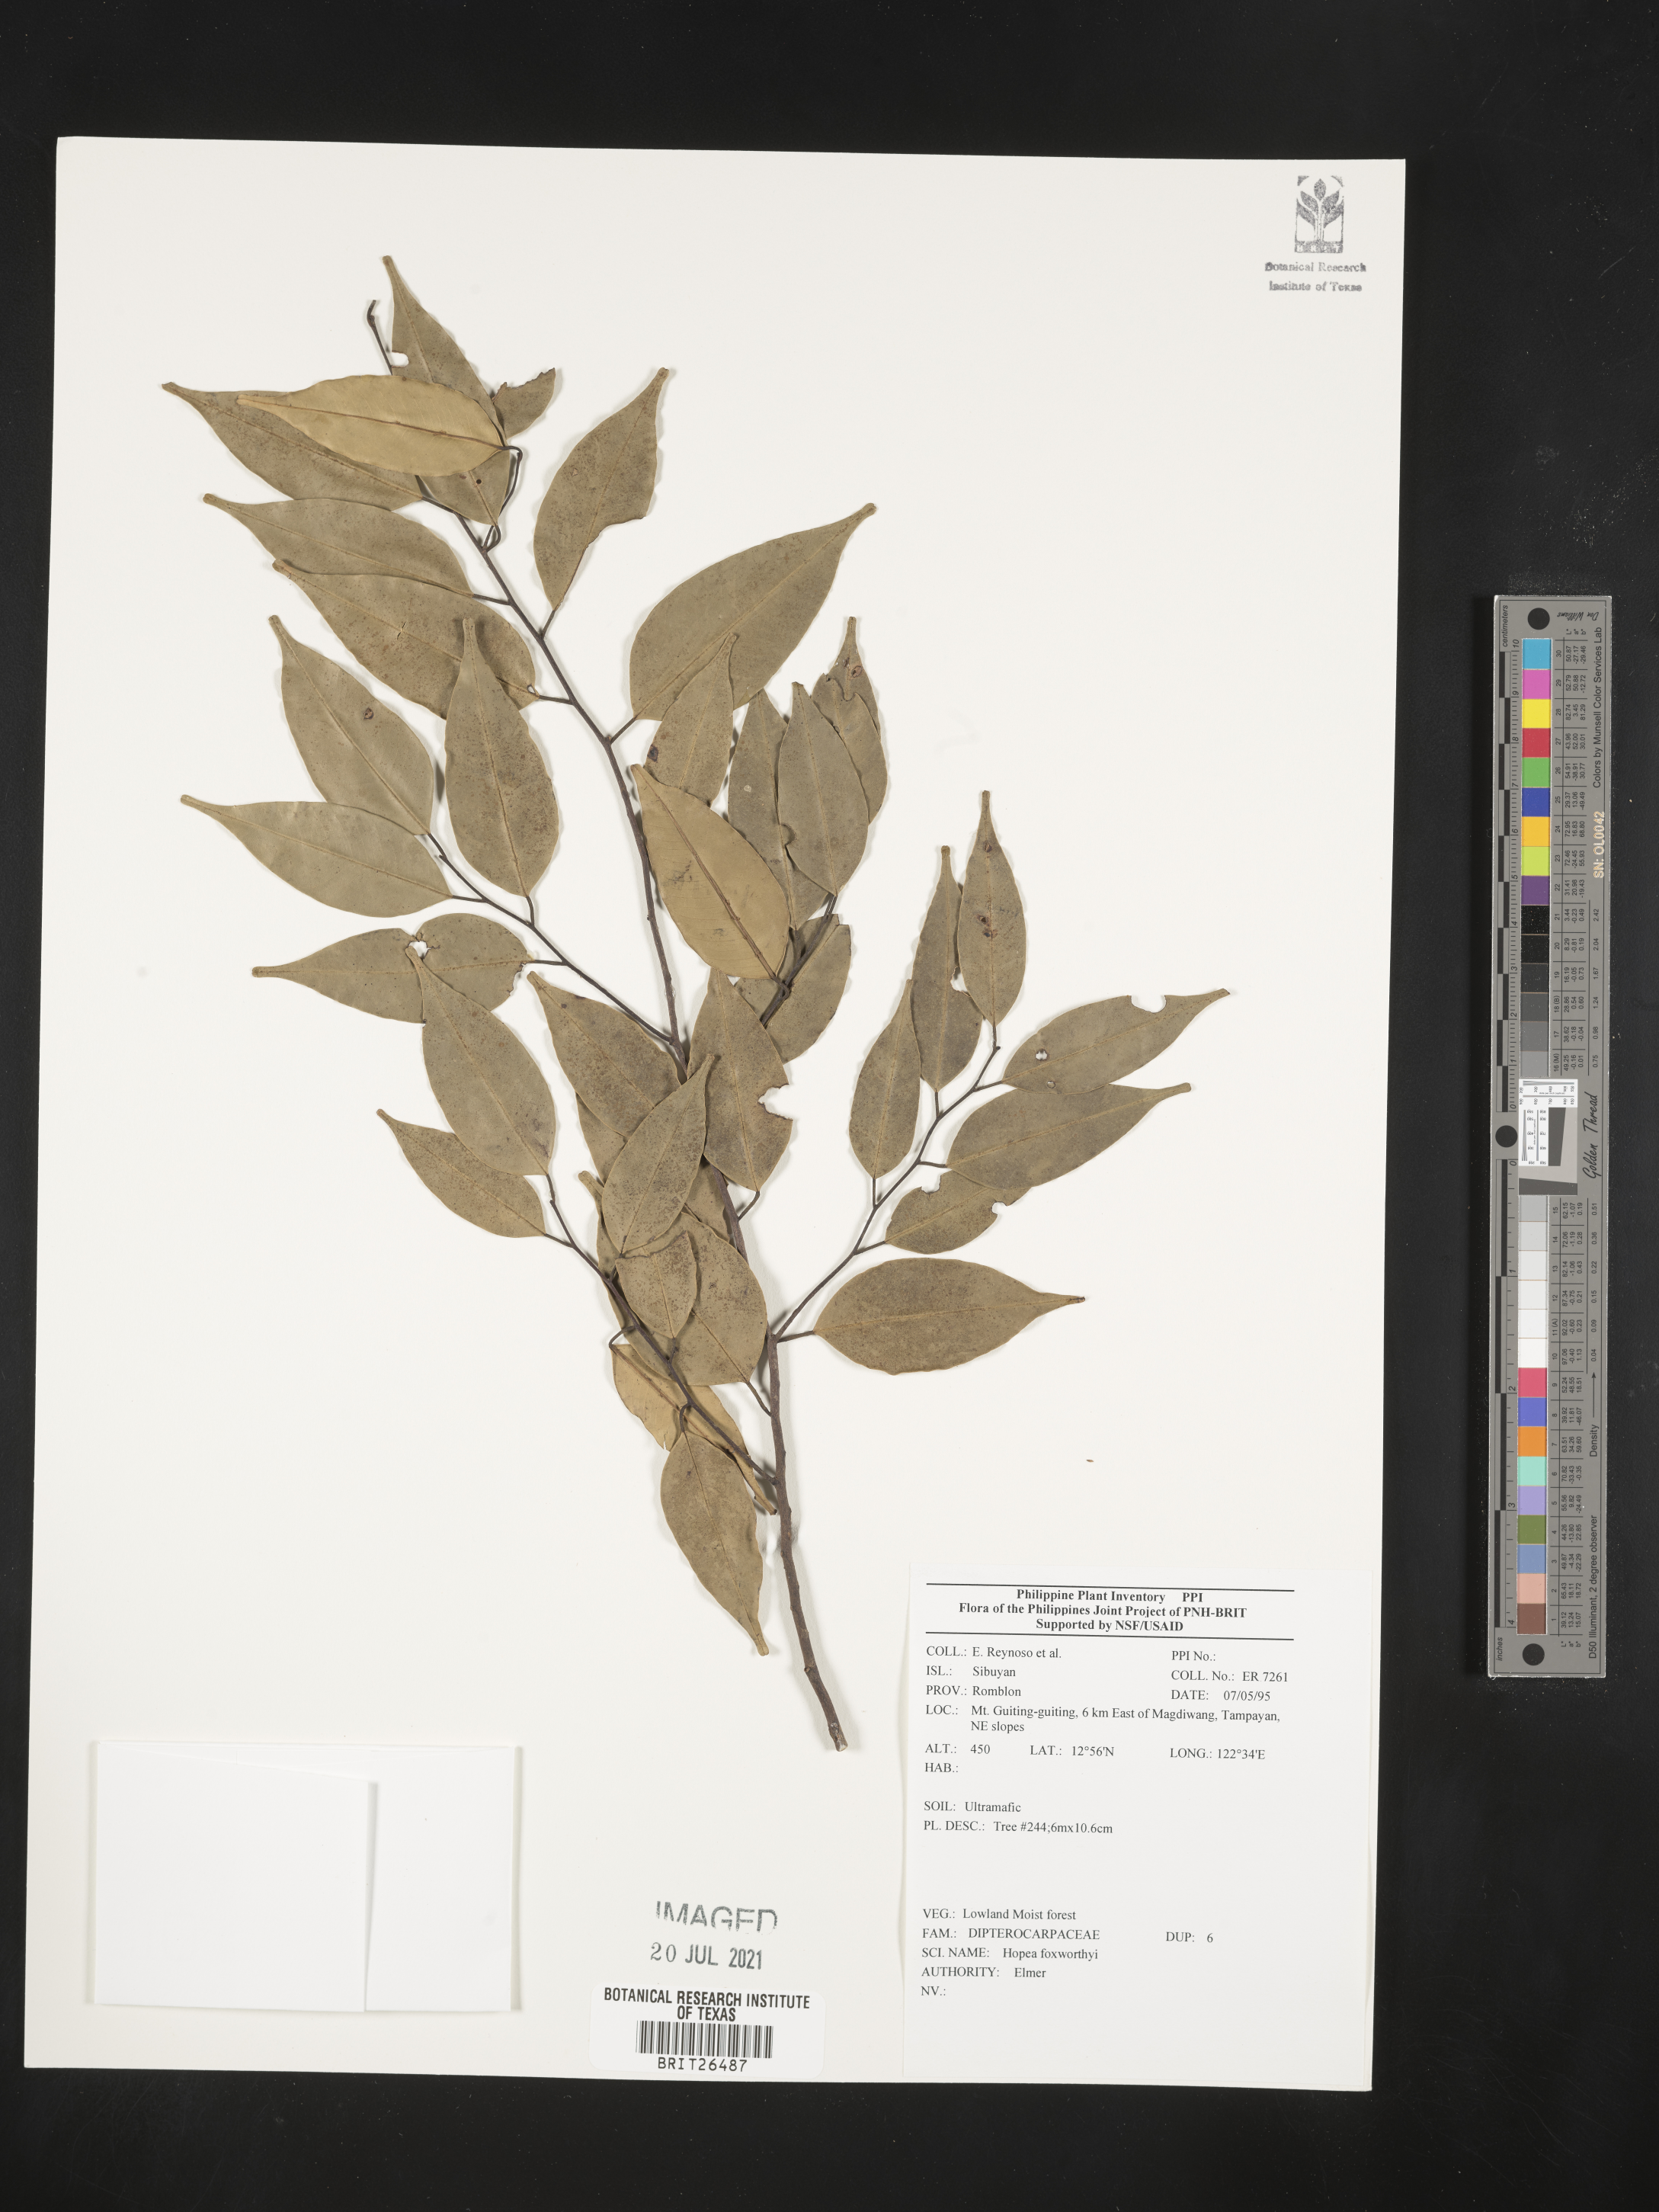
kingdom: Plantae
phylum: Tracheophyta
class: Magnoliopsida
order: Malvales
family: Dipterocarpaceae
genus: Hopea
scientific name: Hopea foxworthyi
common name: Dalingdingan
